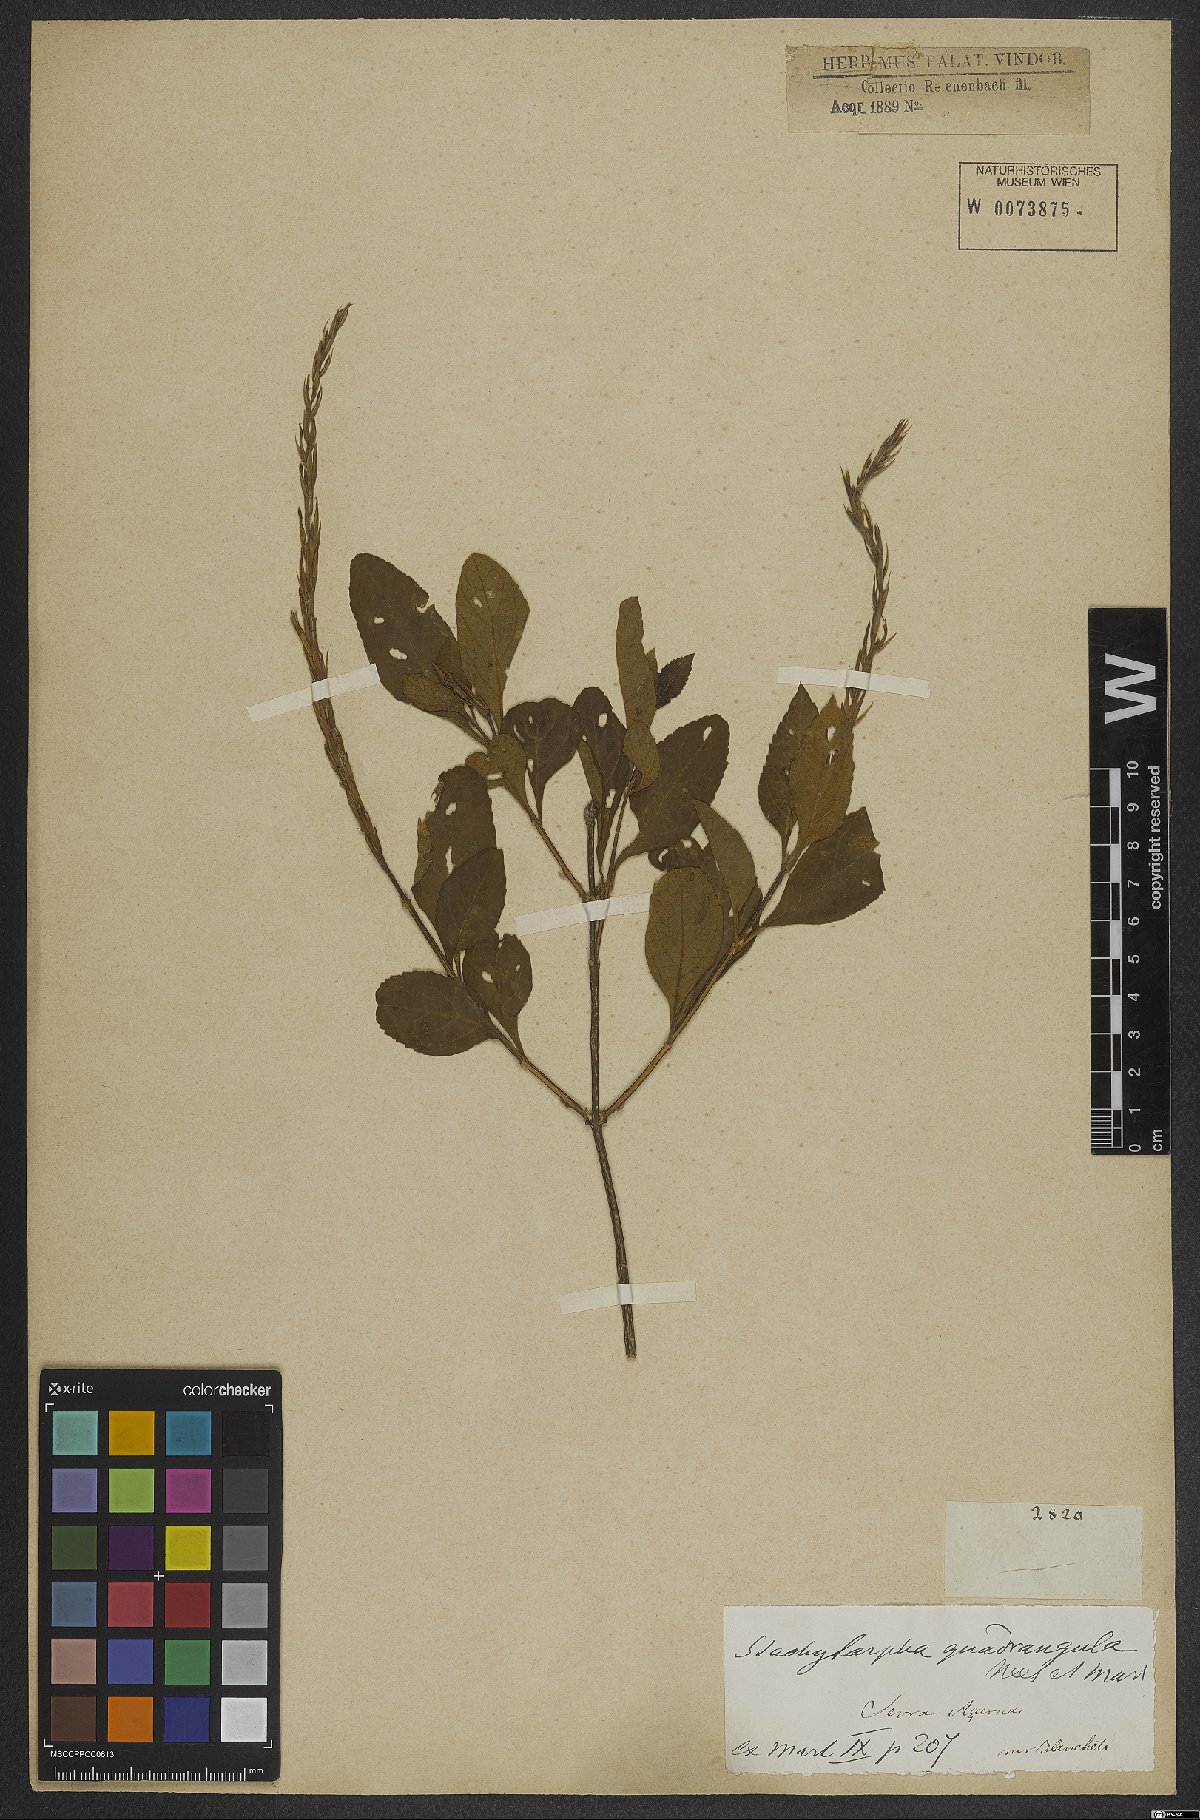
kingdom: Plantae
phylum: Tracheophyta
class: Magnoliopsida
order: Lamiales
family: Verbenaceae
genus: Stachytarpheta
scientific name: Stachytarpheta quadrangula
